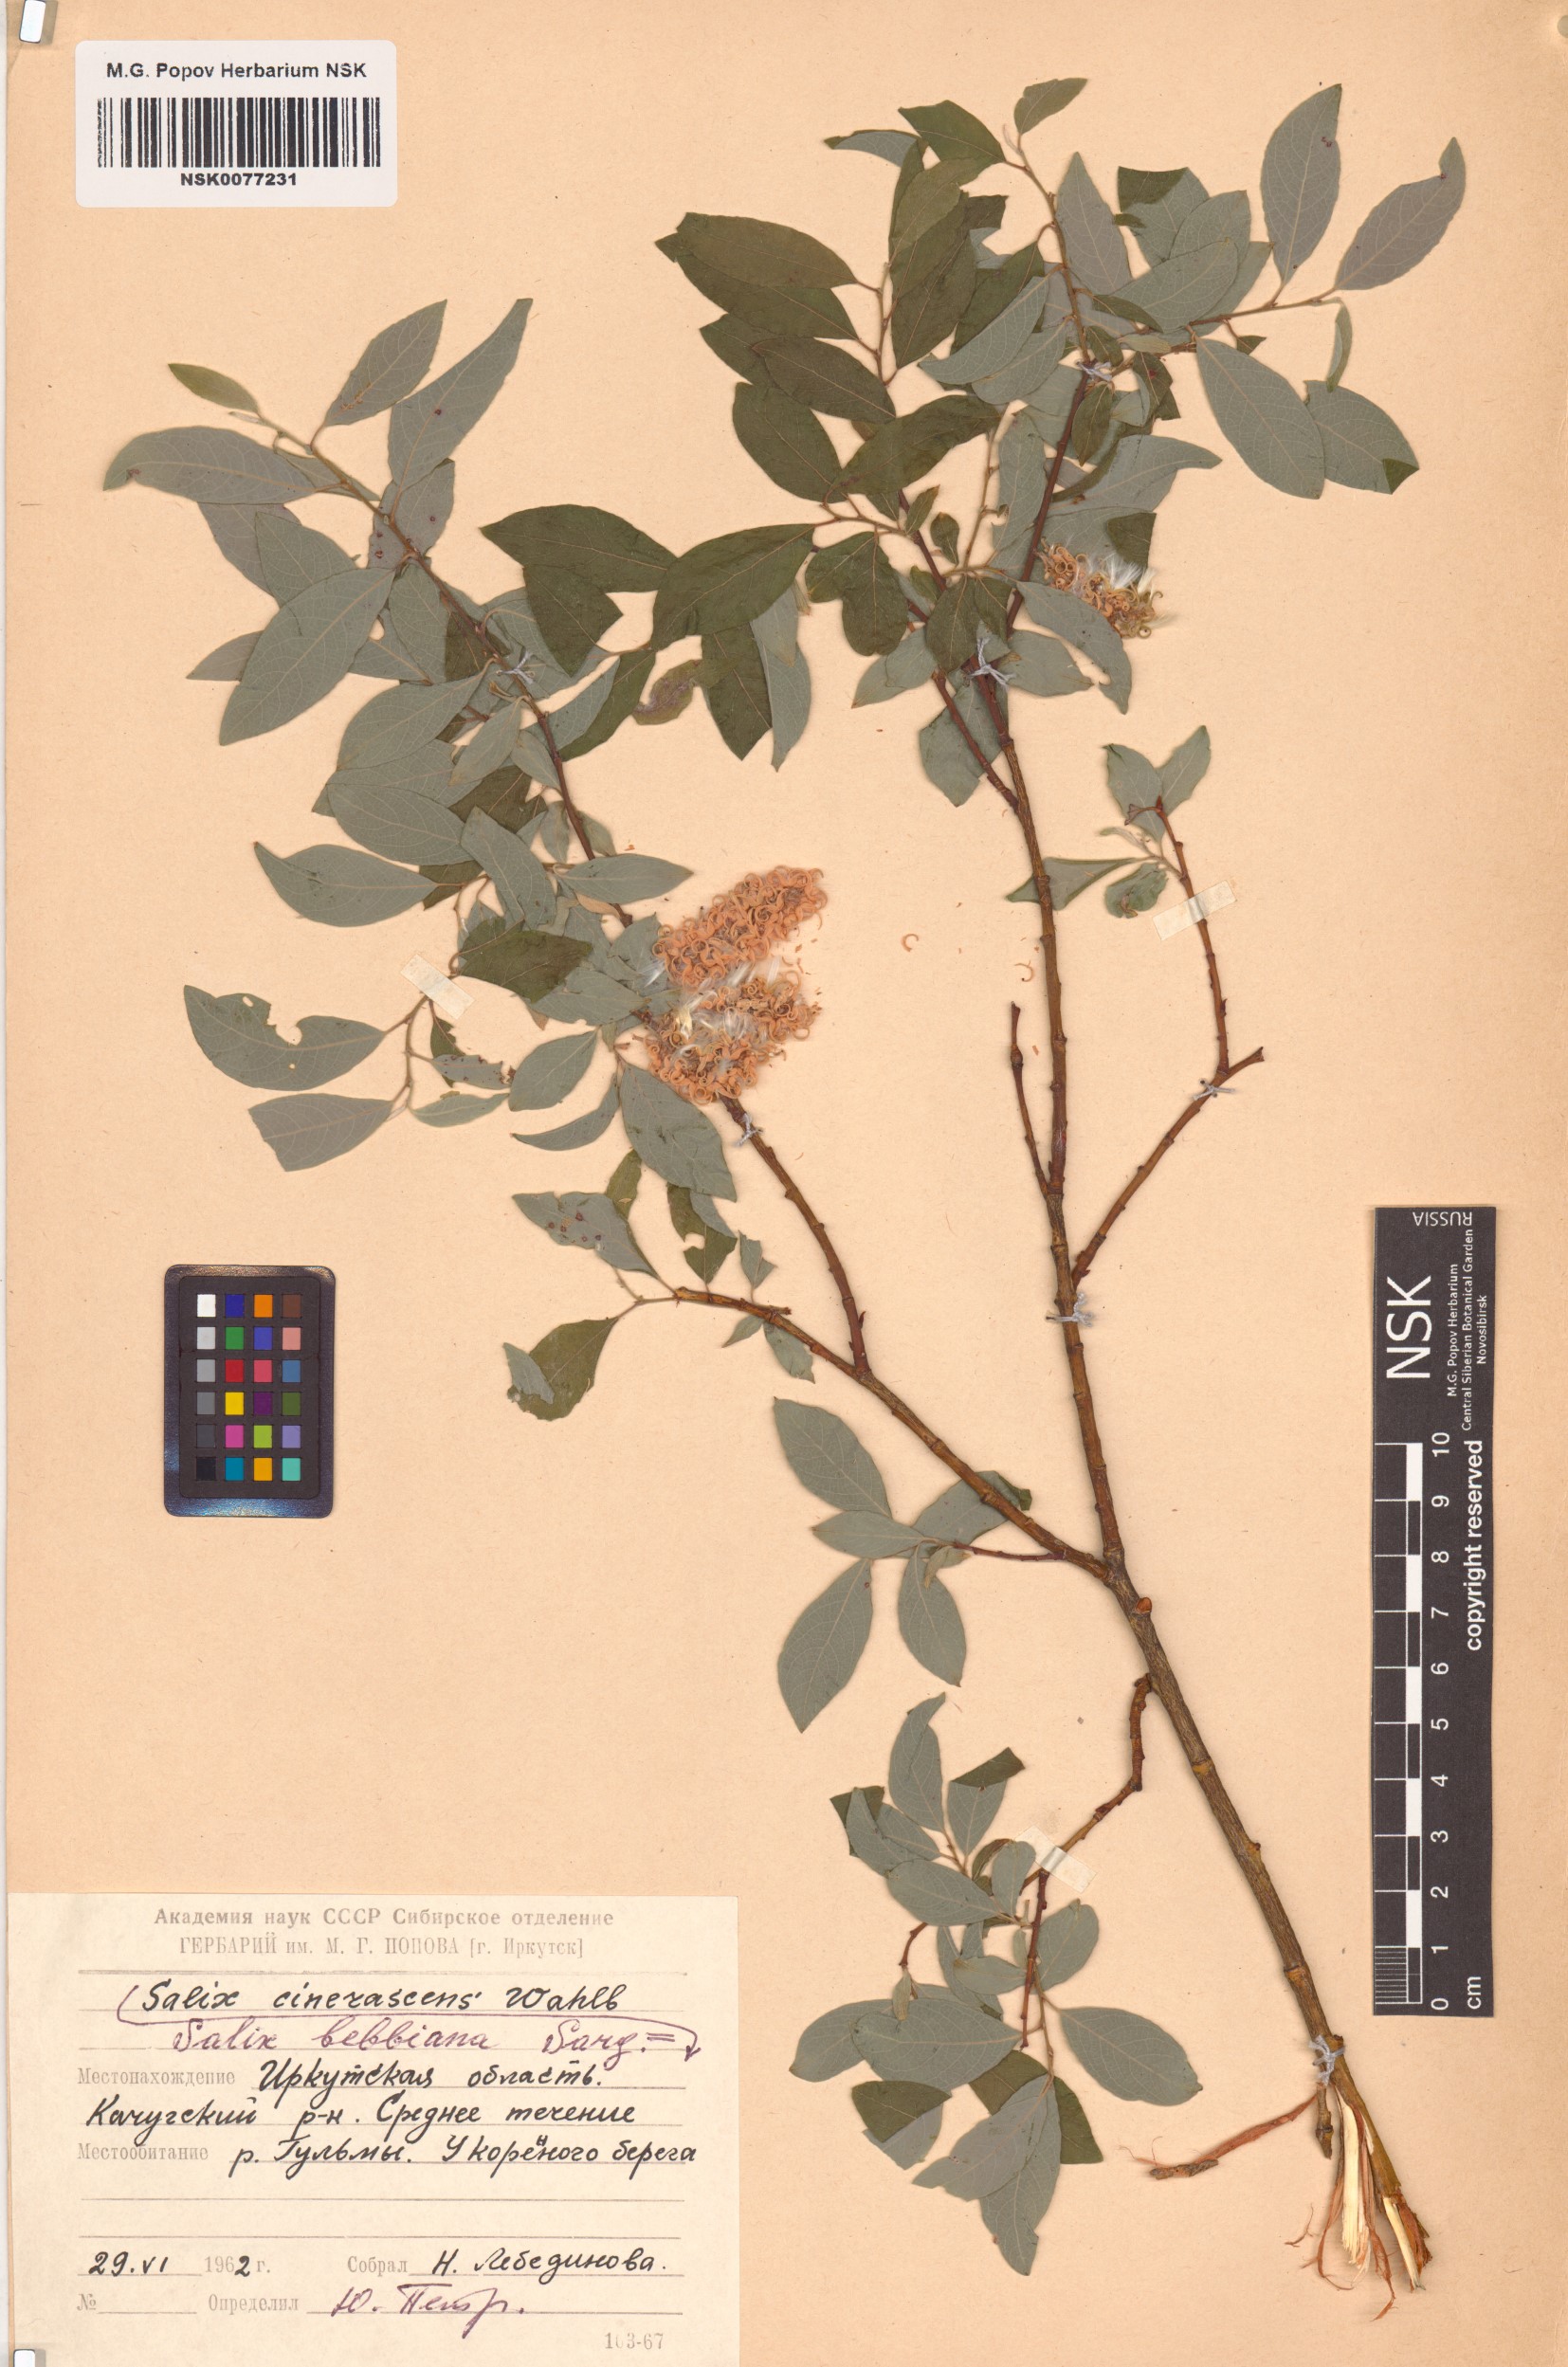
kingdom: Plantae
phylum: Tracheophyta
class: Magnoliopsida
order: Malpighiales
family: Salicaceae
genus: Salix
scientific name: Salix bebbiana
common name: Bebb's willow
